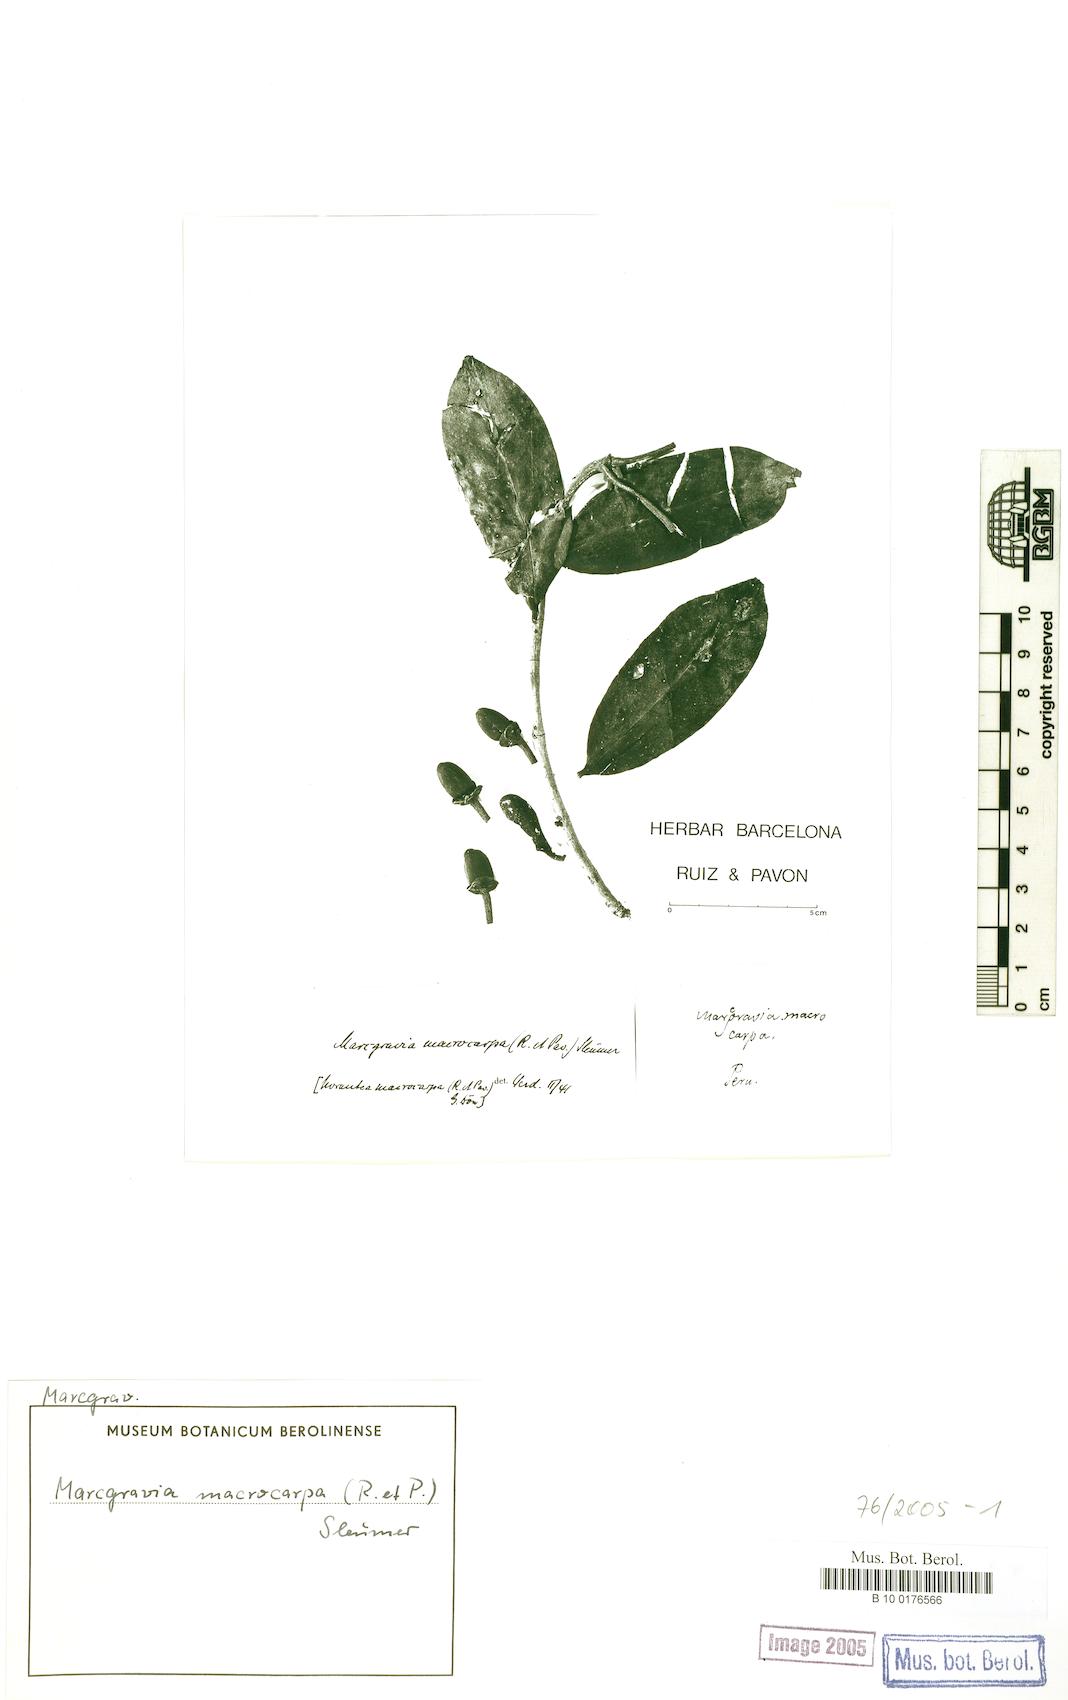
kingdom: Plantae
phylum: Tracheophyta
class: Magnoliopsida
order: Ericales
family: Marcgraviaceae
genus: Marcgraviastrum
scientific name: Marcgraviastrum macrocarpum
